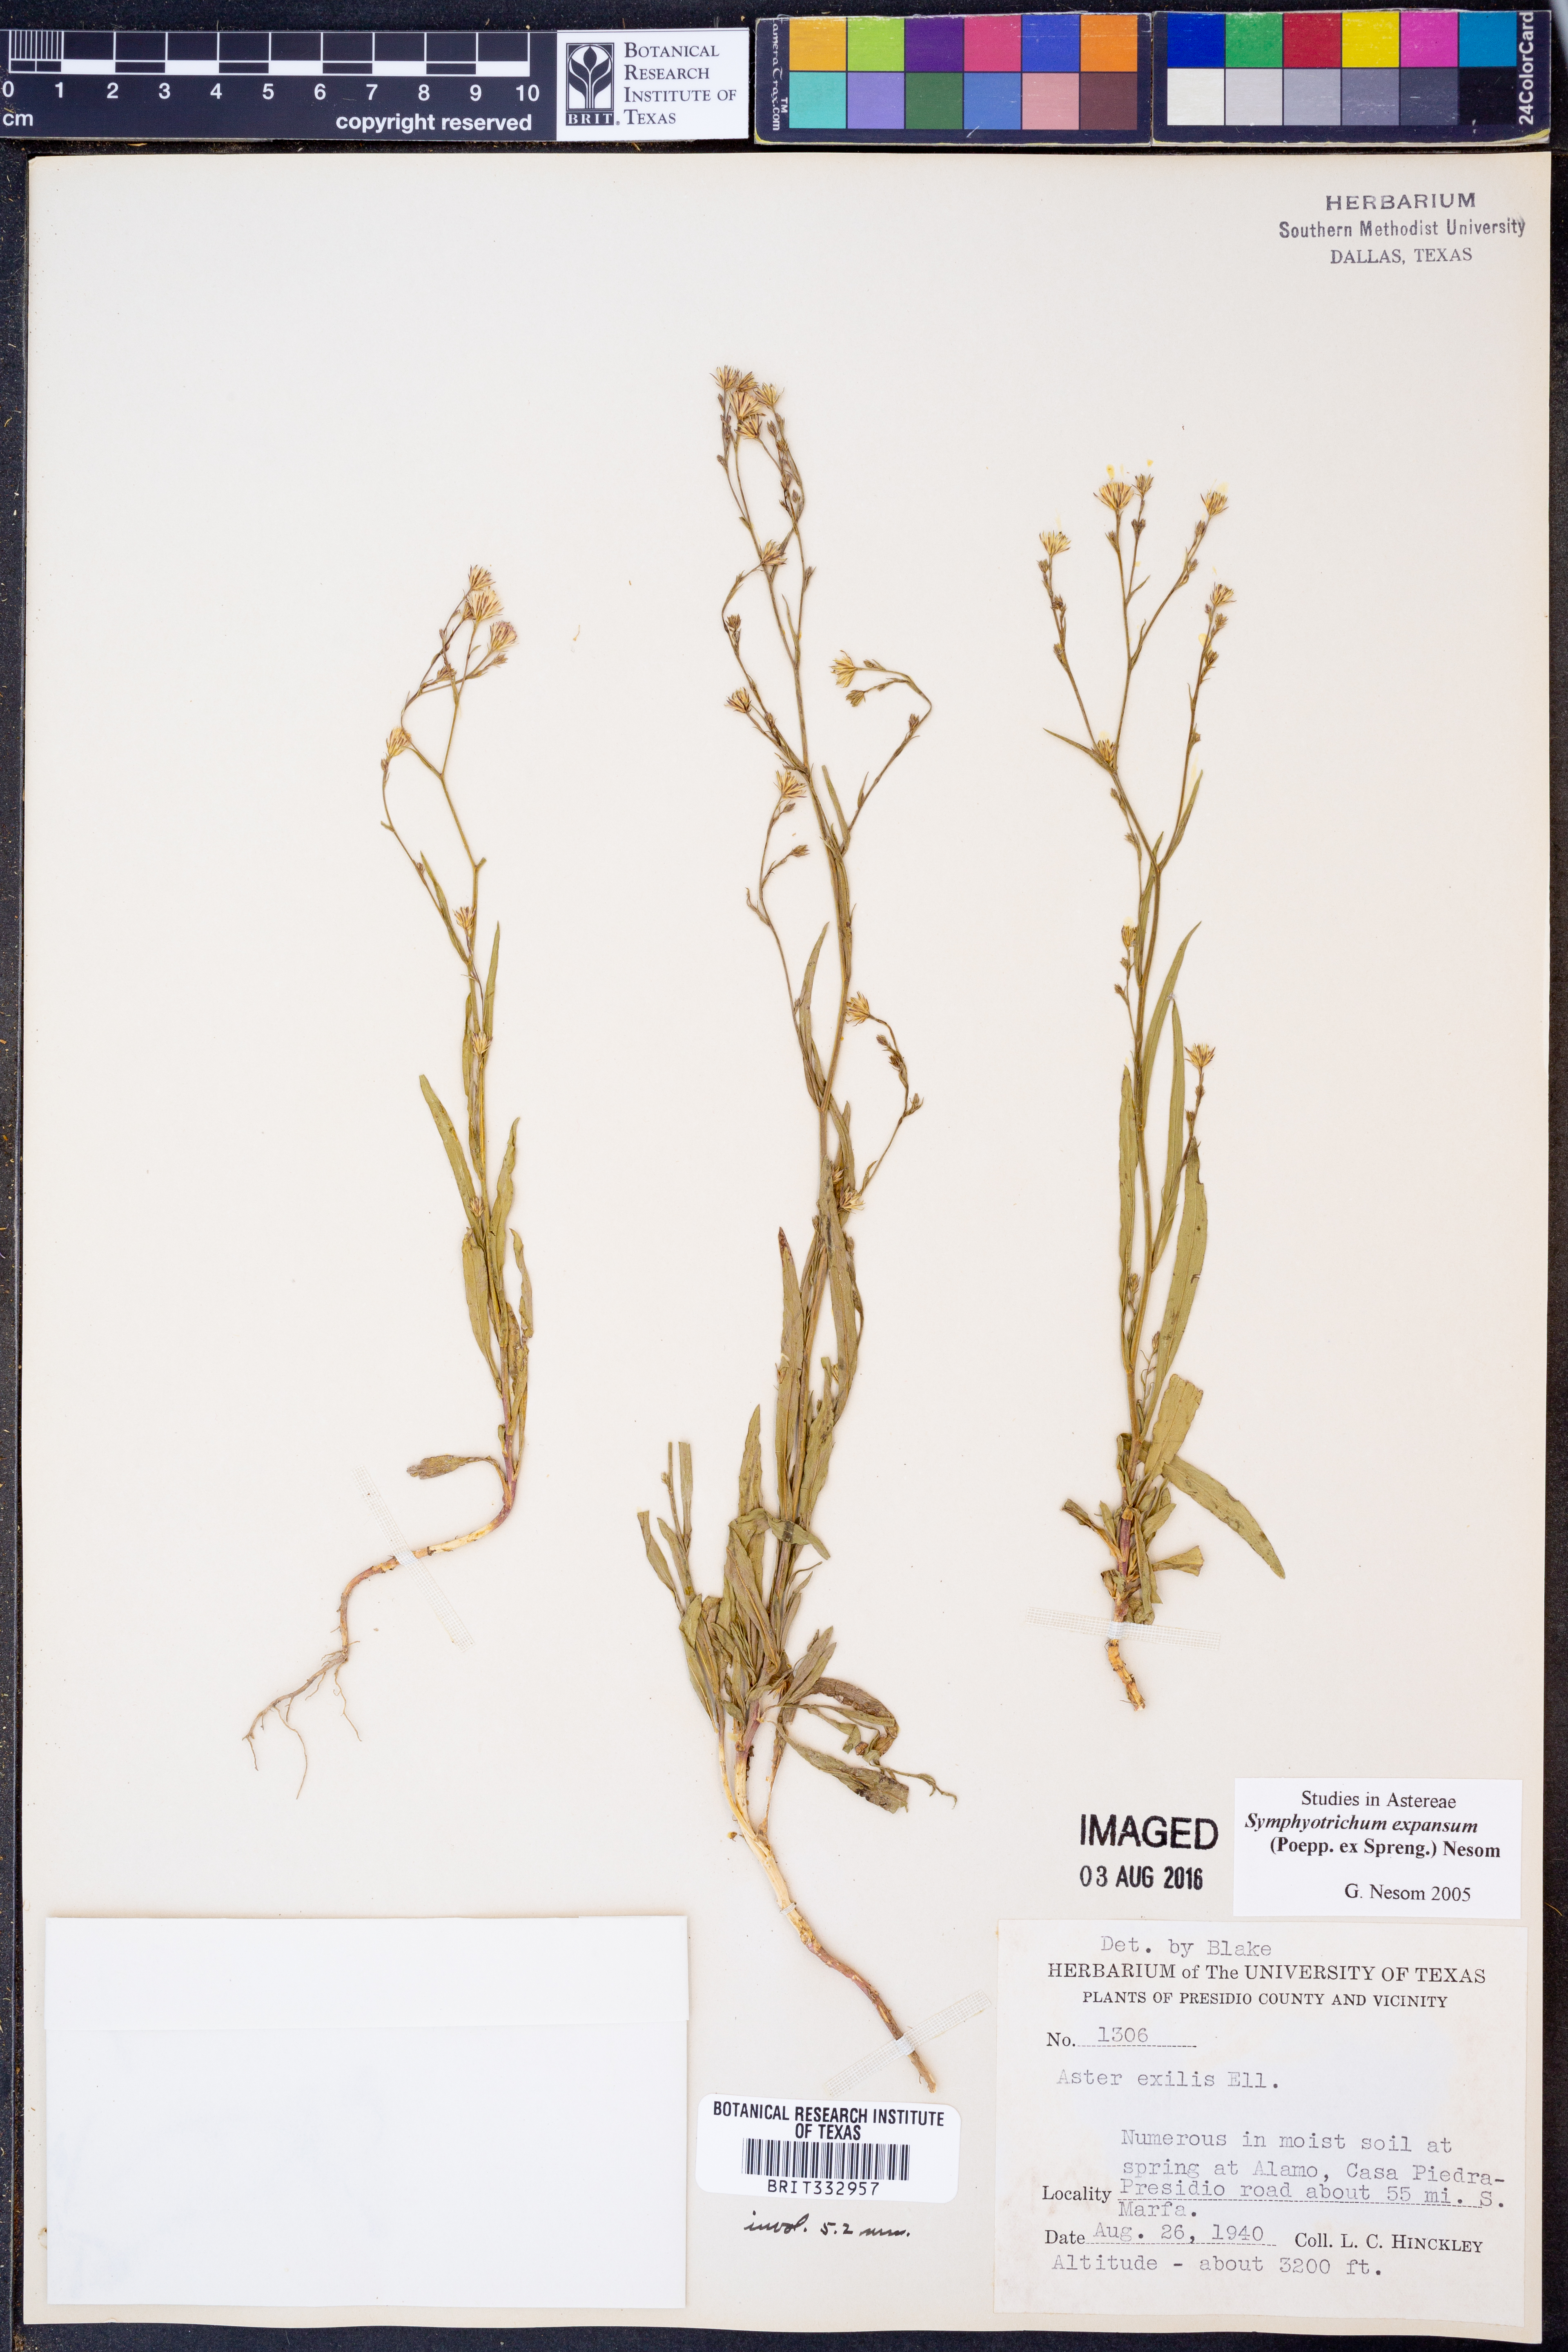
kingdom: Plantae
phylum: Tracheophyta
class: Magnoliopsida
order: Asterales
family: Asteraceae
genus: Symphyotrichum
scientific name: Symphyotrichum expansum
